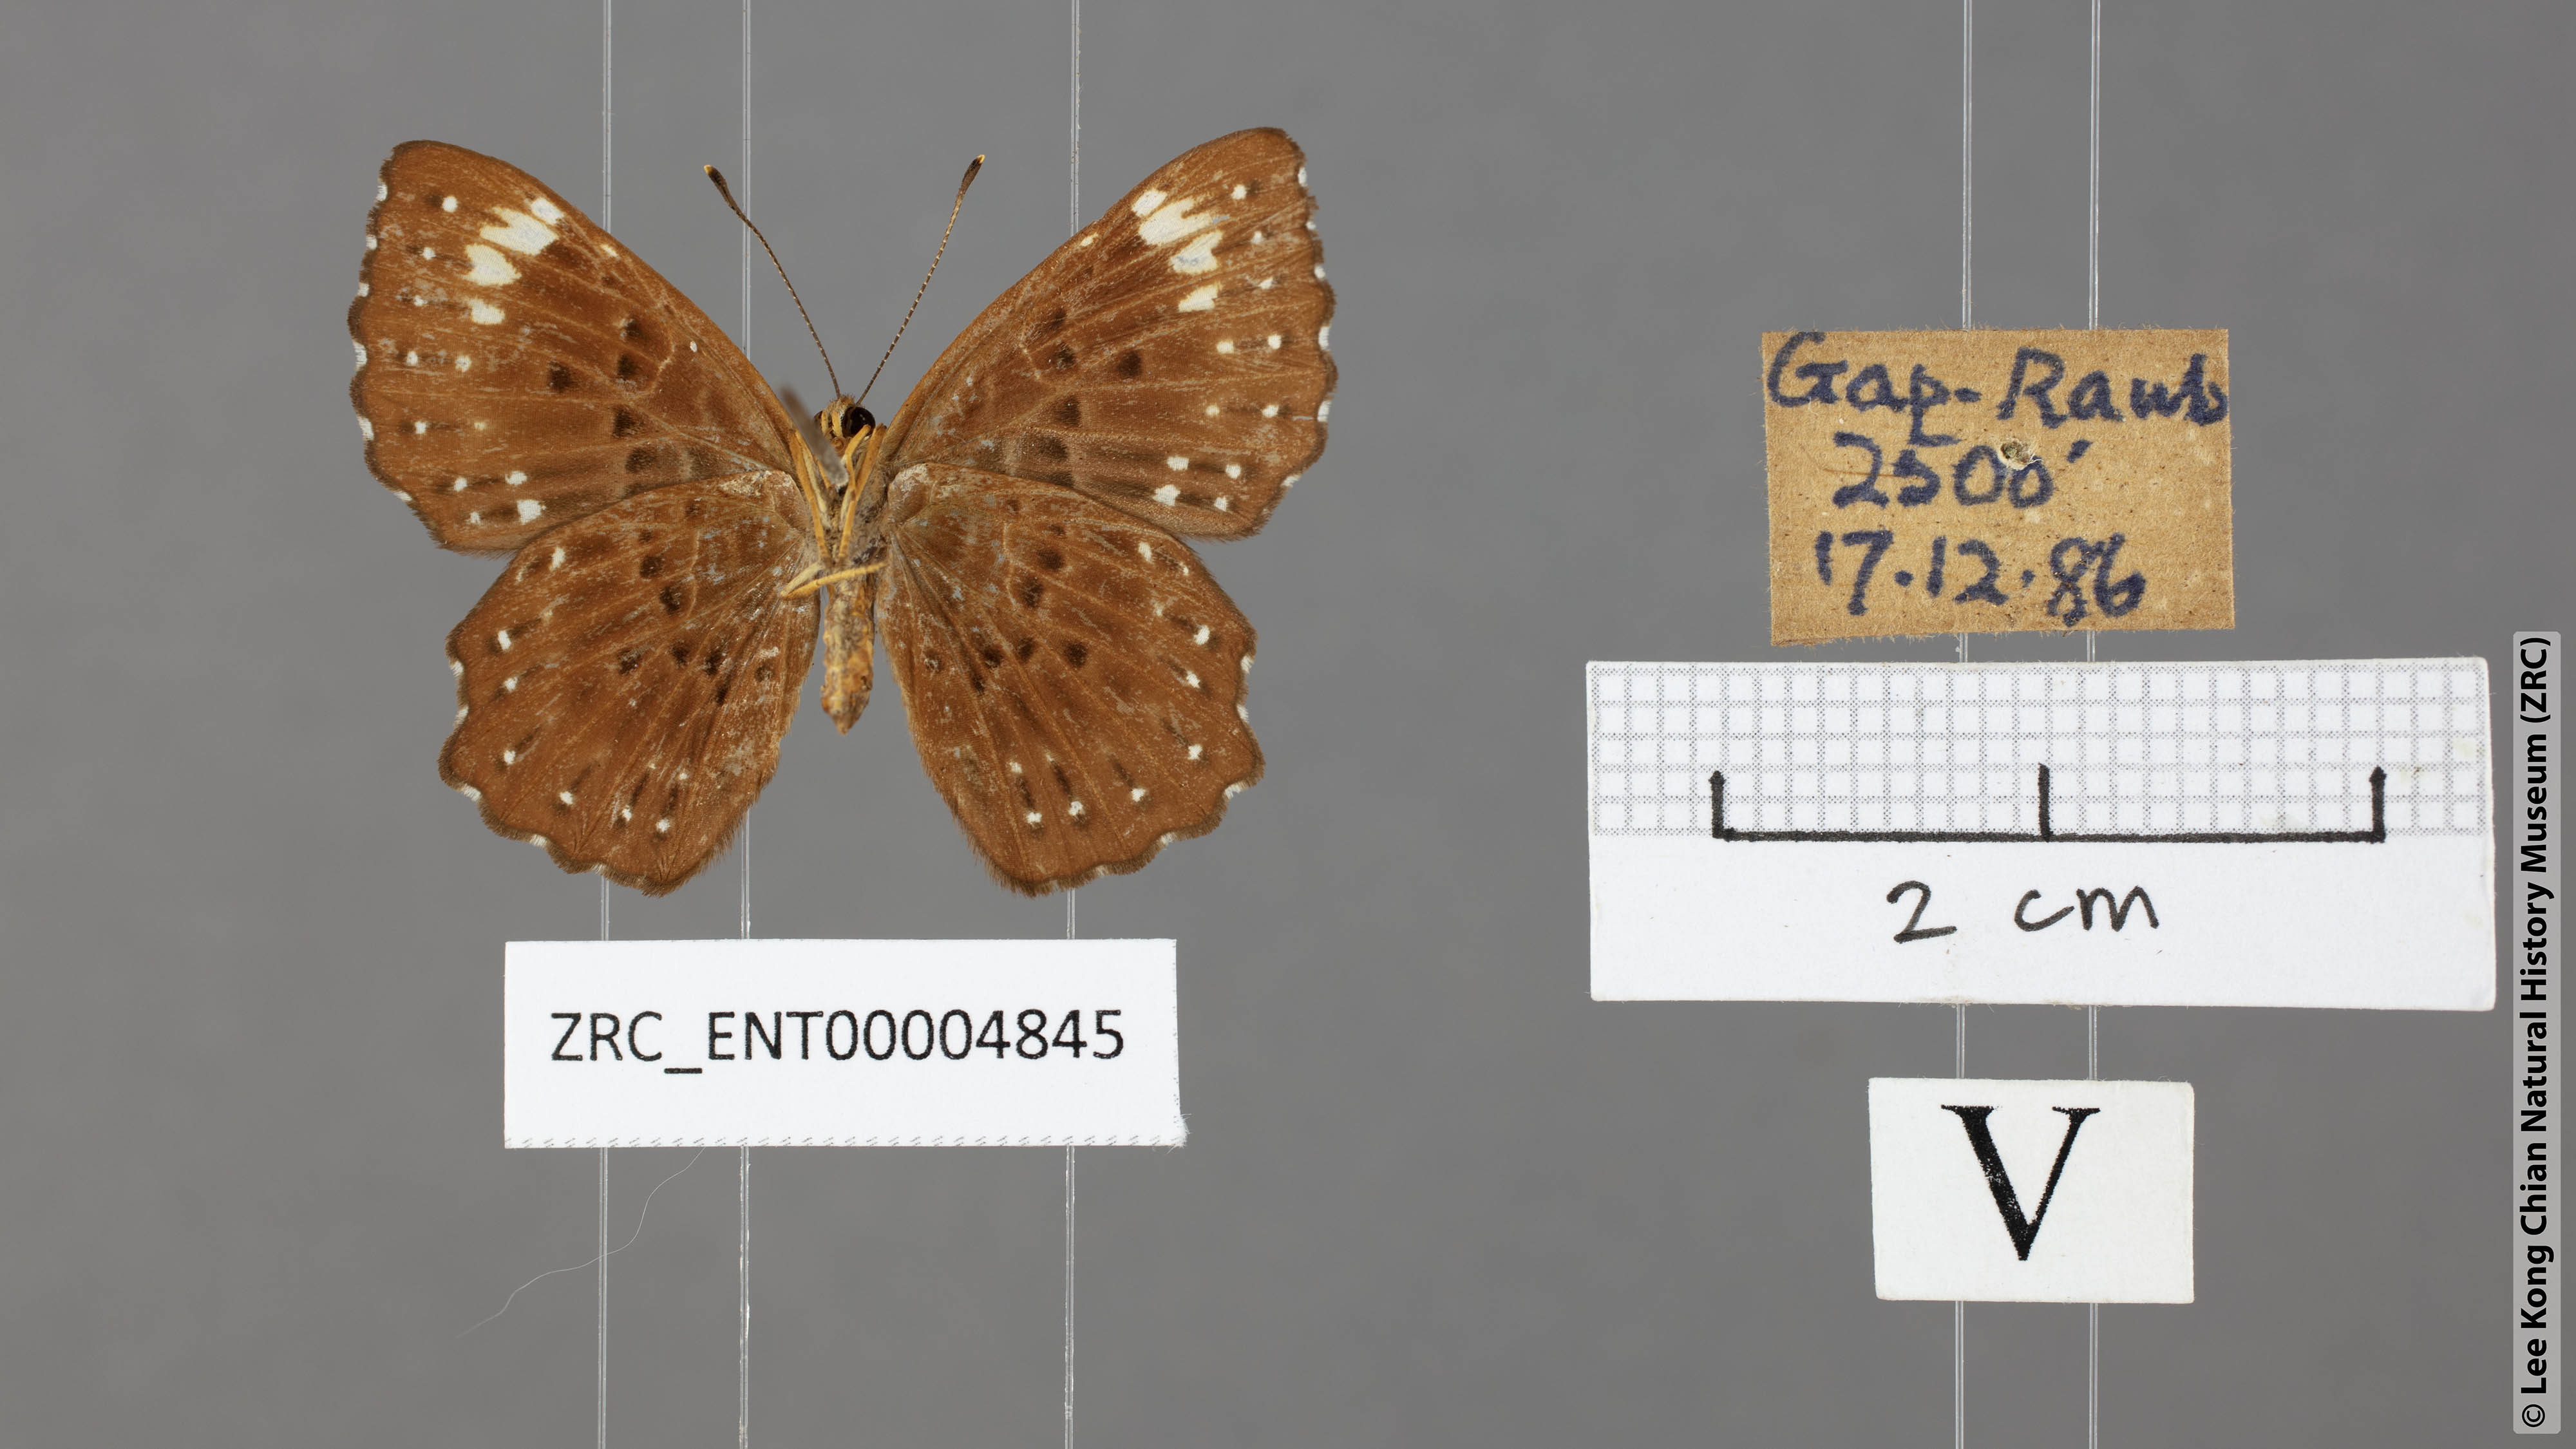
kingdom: Animalia
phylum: Arthropoda
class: Insecta
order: Lepidoptera
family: Riodinidae
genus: Zemeros
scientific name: Zemeros flegyas
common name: Punchinello
